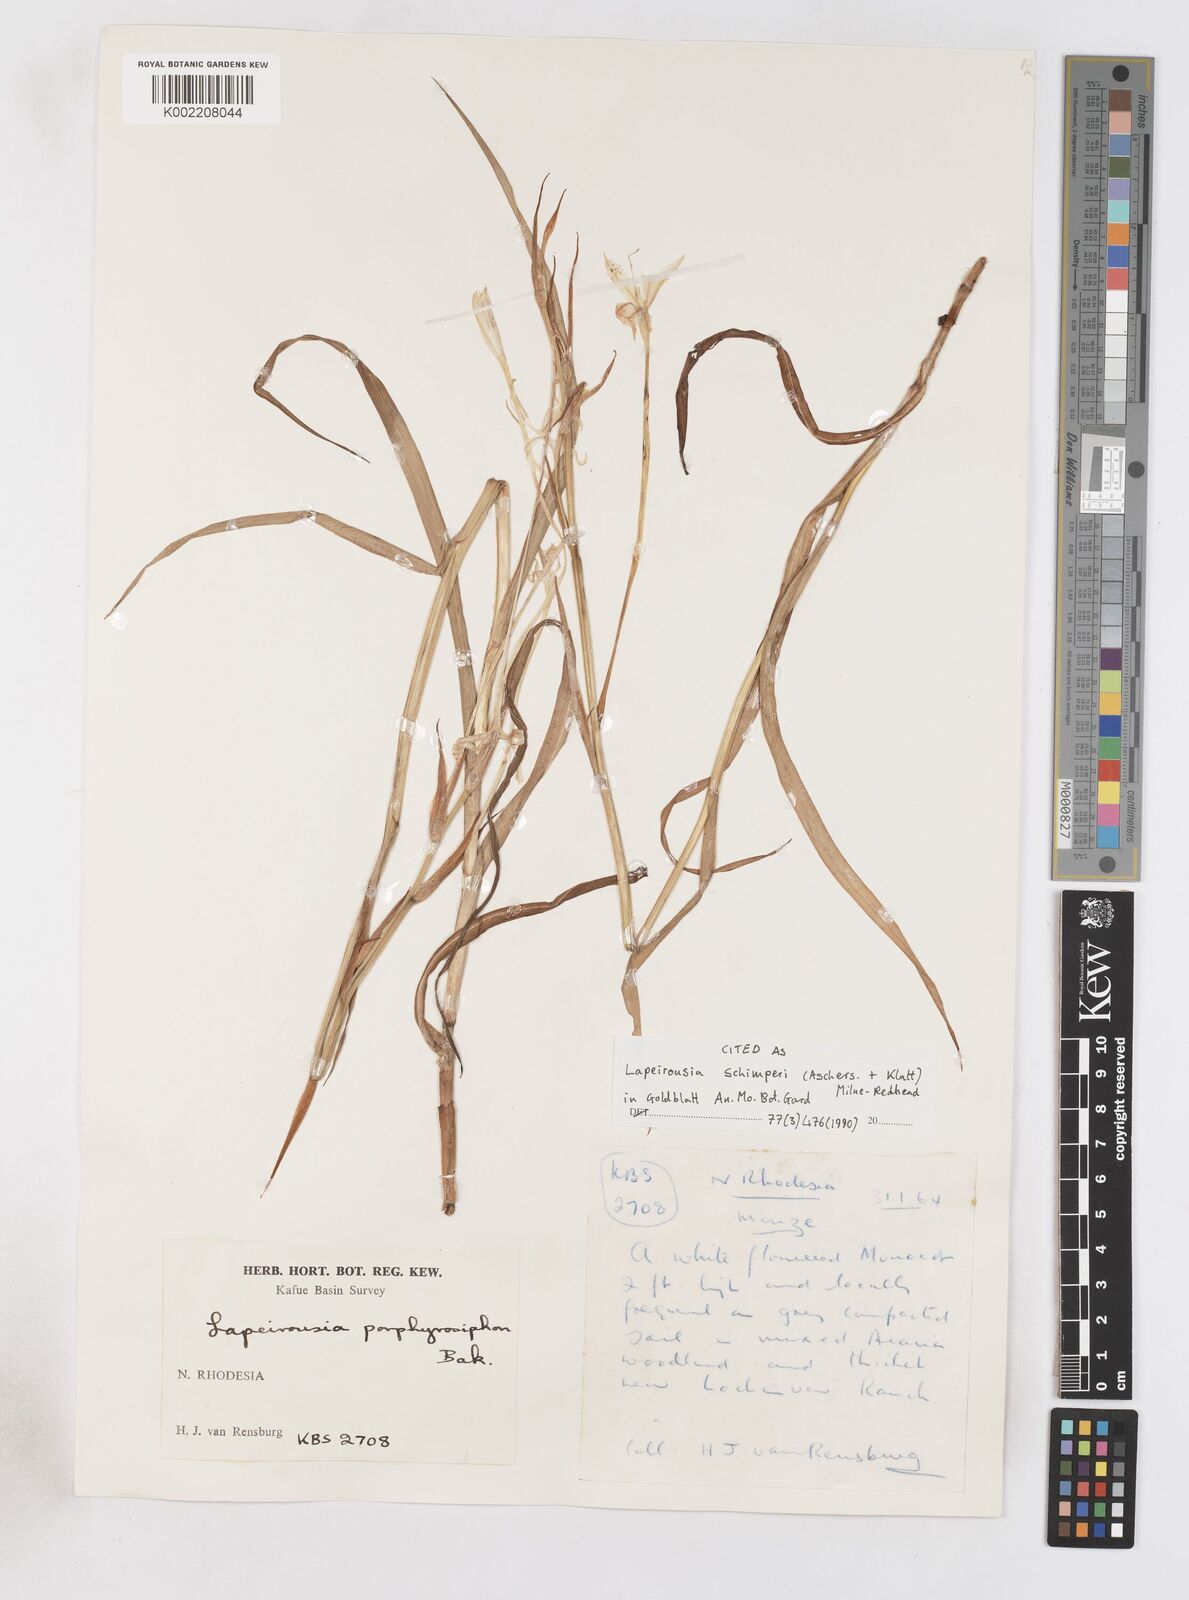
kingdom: Plantae
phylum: Tracheophyta
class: Liliopsida
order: Asparagales
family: Iridaceae
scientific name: Iridaceae
